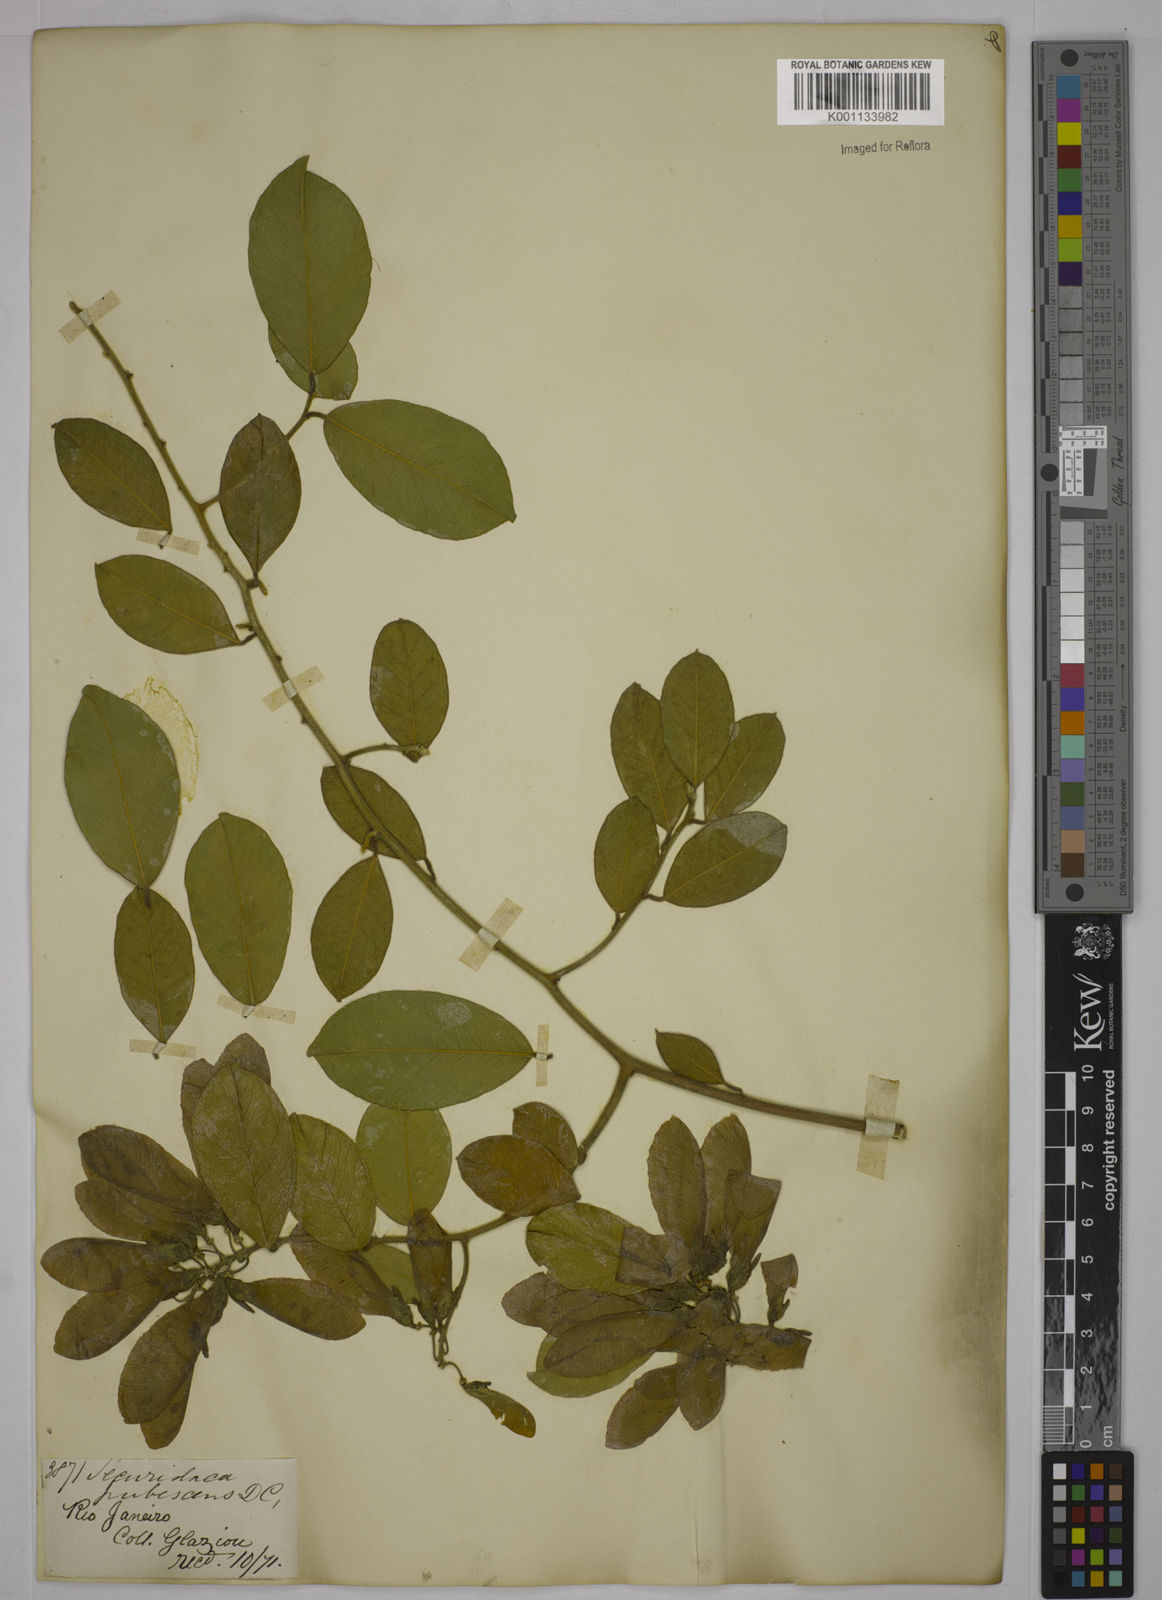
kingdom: Plantae
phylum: Tracheophyta
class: Magnoliopsida
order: Fabales
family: Polygalaceae
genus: Securidaca
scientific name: Securidaca diversifolia
